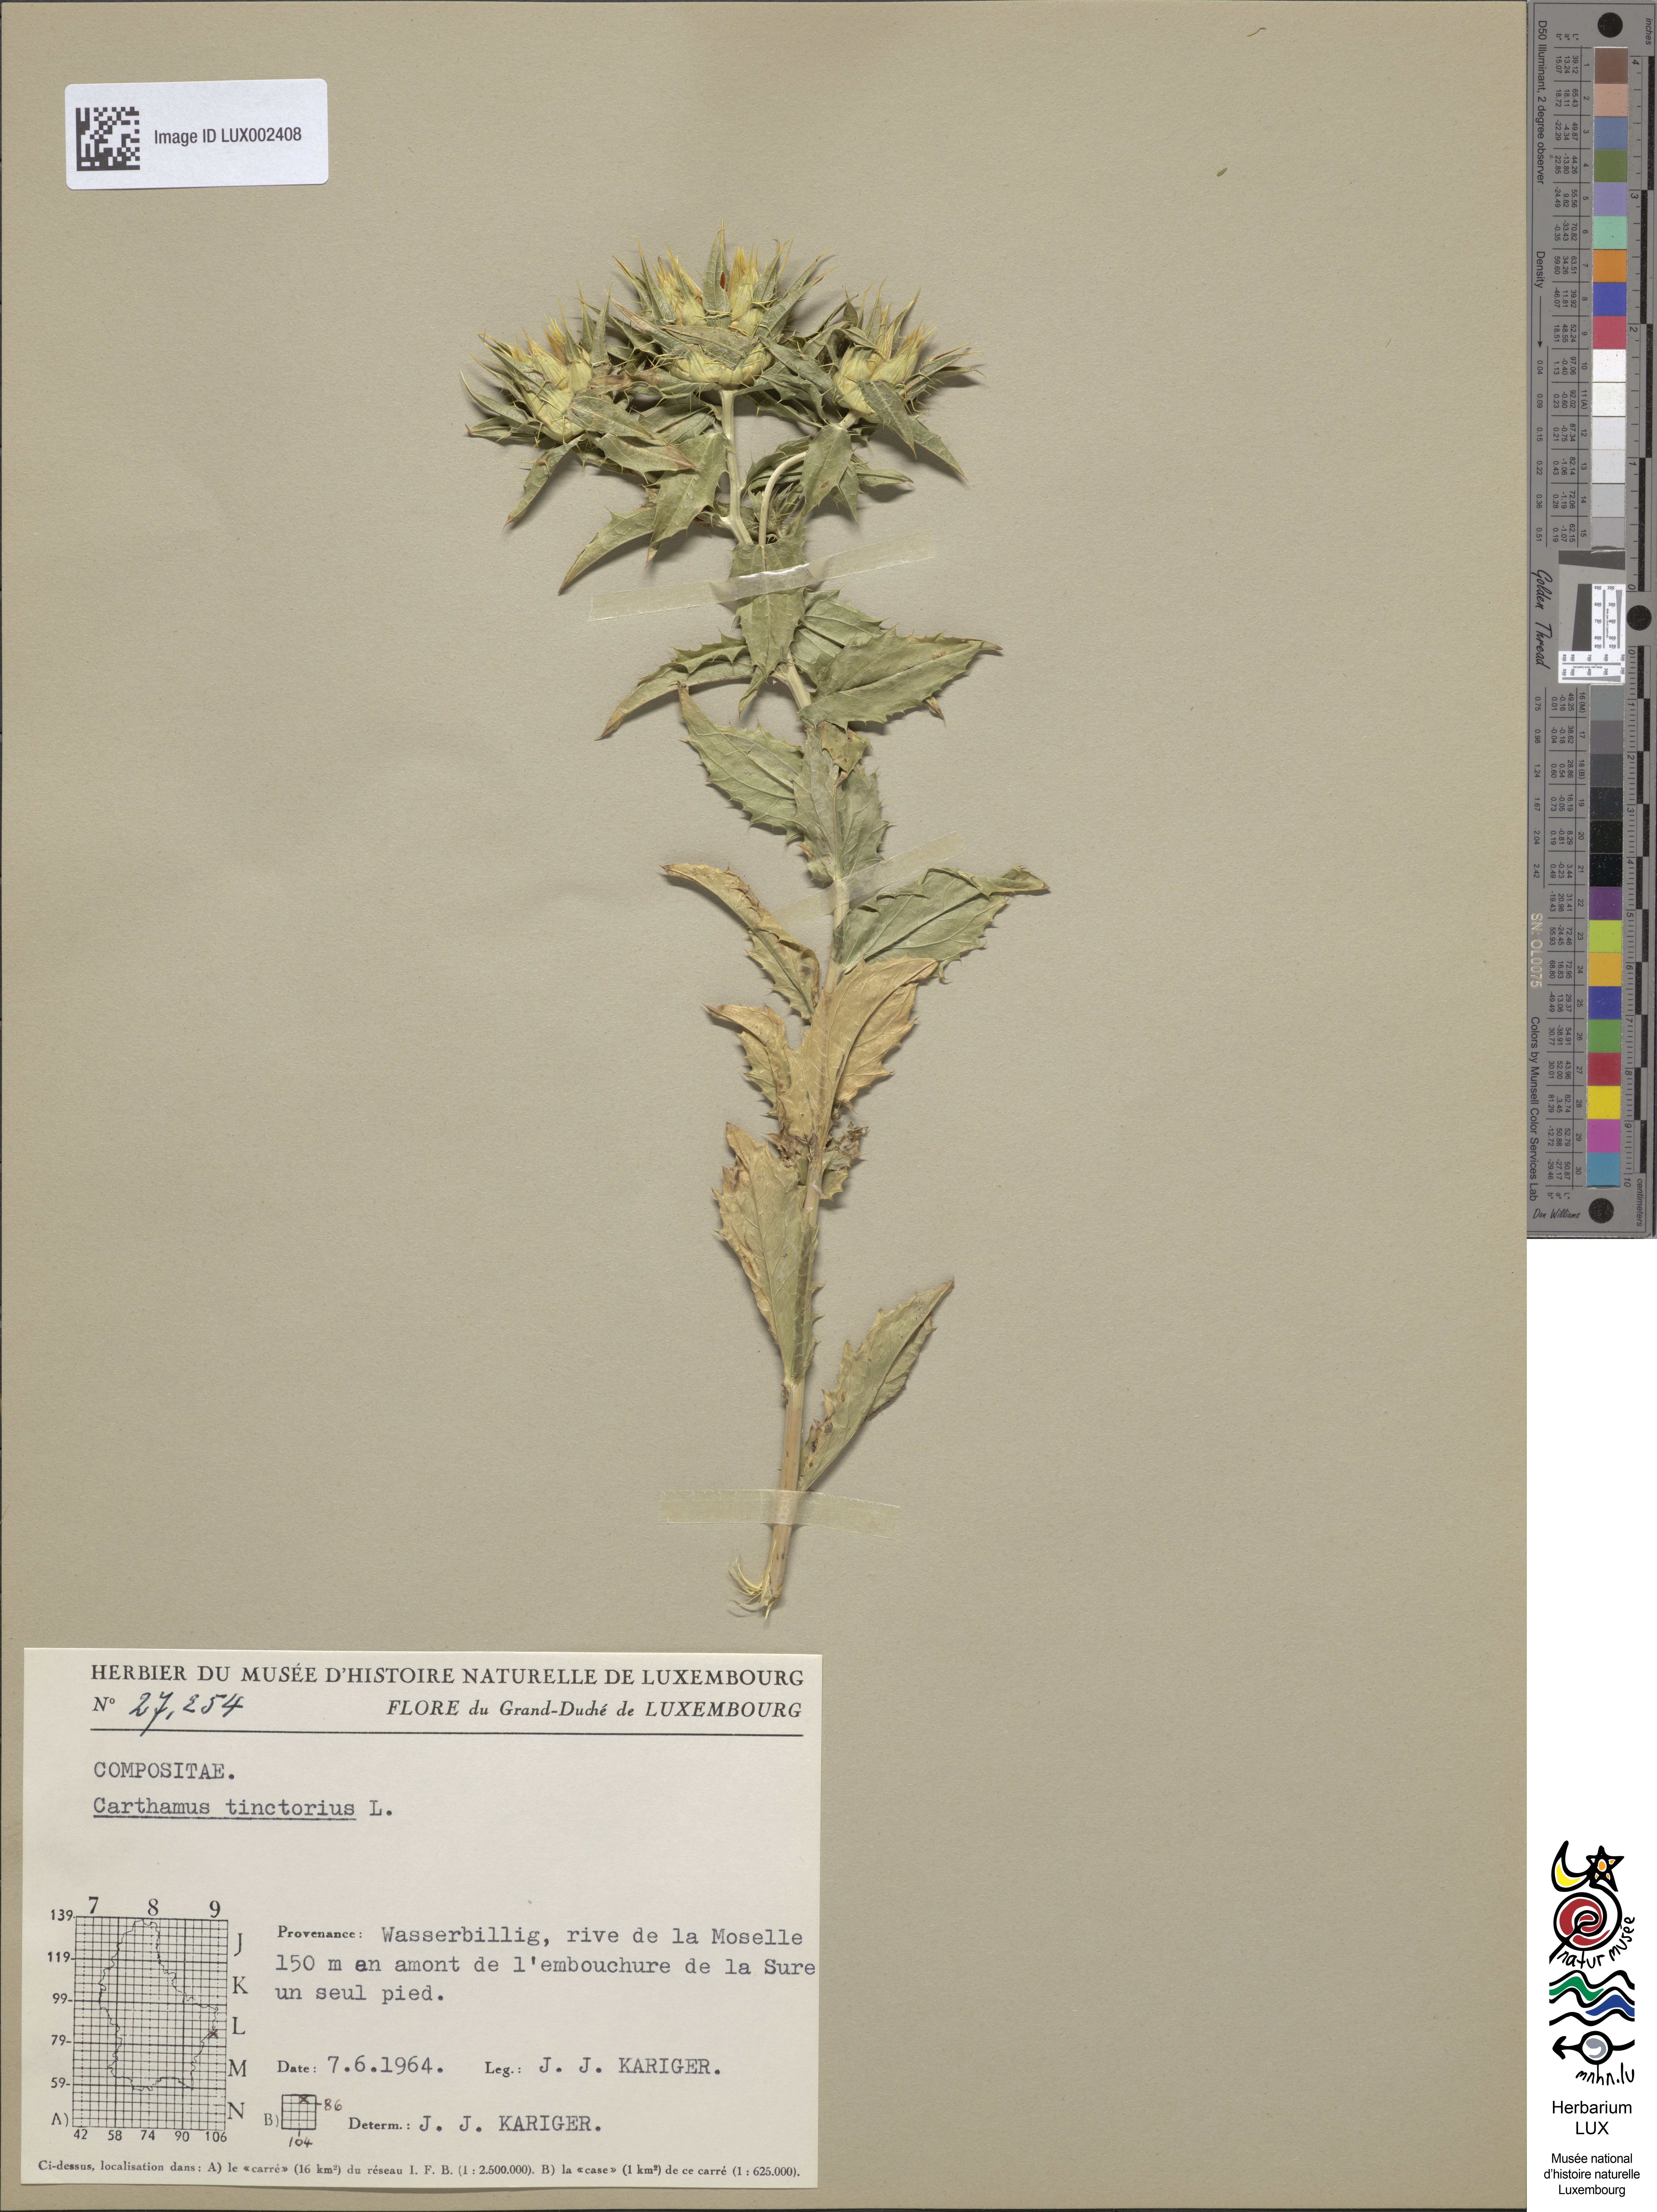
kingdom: Plantae
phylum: Tracheophyta
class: Magnoliopsida
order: Asterales
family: Asteraceae
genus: Carthamus
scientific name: Carthamus tinctorius
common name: Safflower
